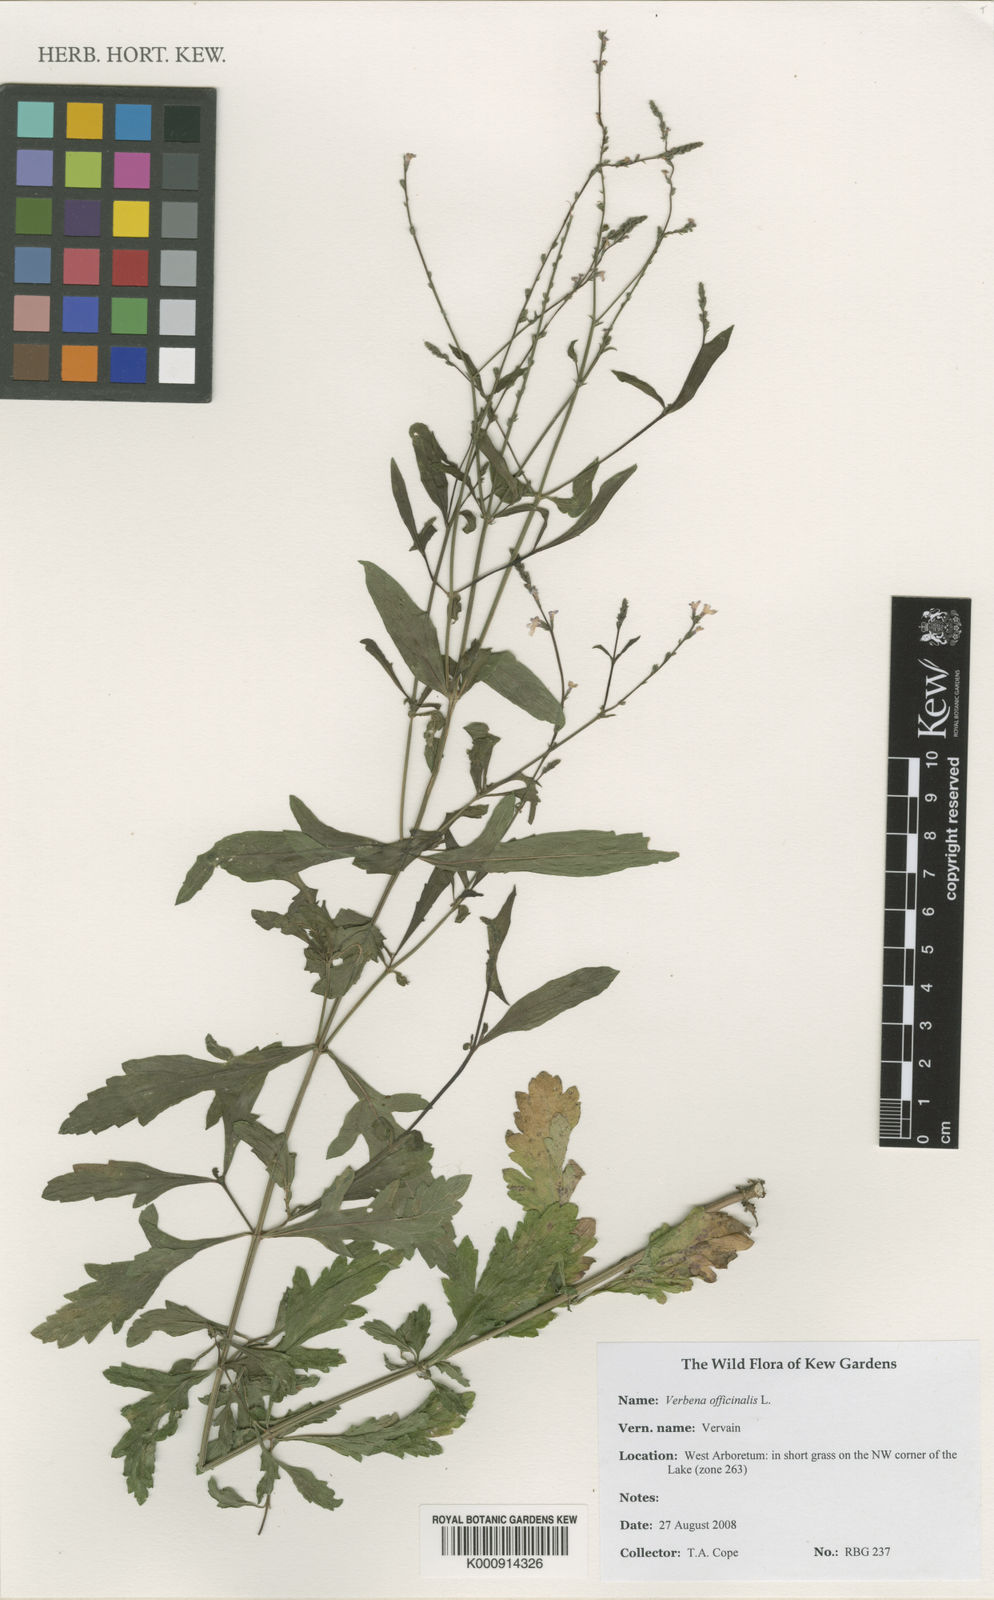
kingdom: Plantae
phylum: Tracheophyta
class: Magnoliopsida
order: Lamiales
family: Verbenaceae
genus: Verbena
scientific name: Verbena officinalis
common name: Vervain
